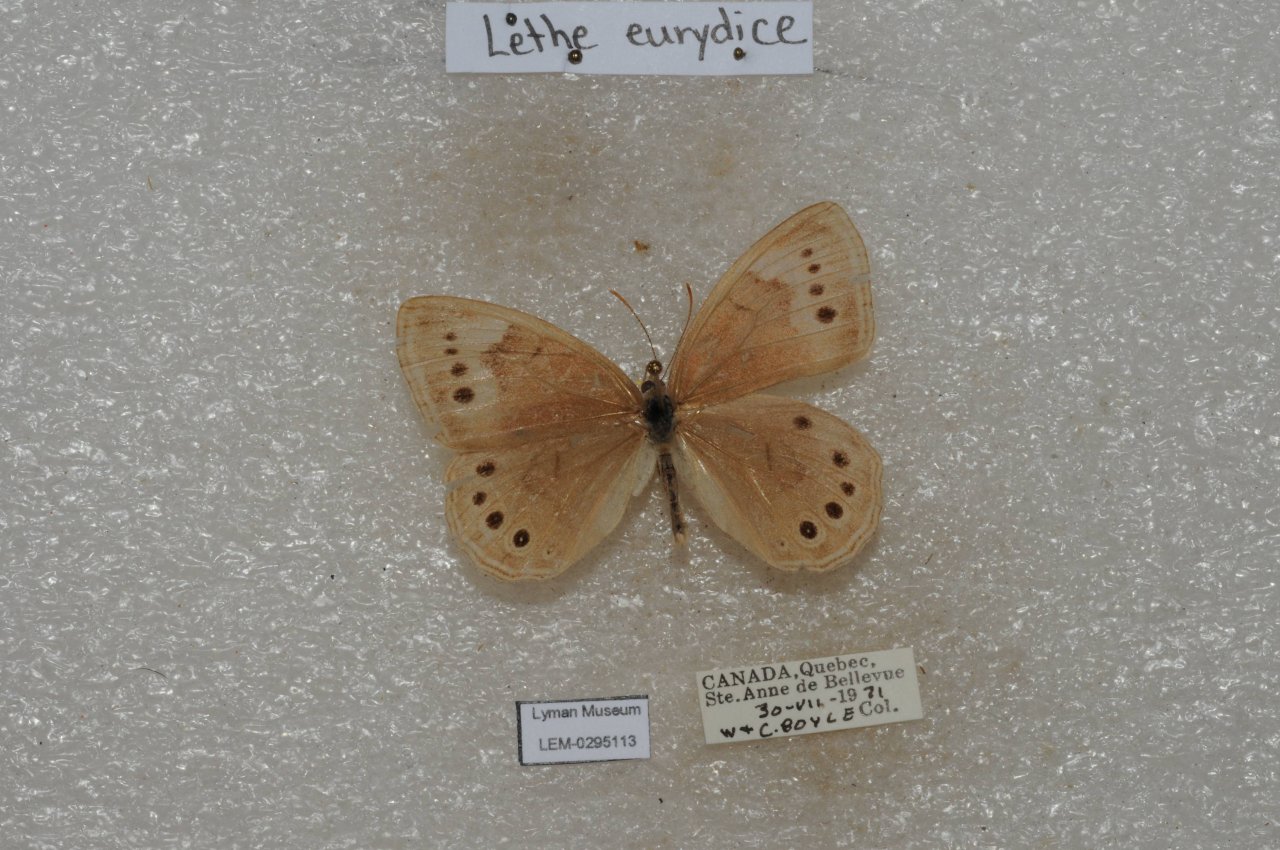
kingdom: Animalia
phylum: Arthropoda
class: Insecta
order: Lepidoptera
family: Nymphalidae
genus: Lethe
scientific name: Lethe eurydice
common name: Eyed Brown
